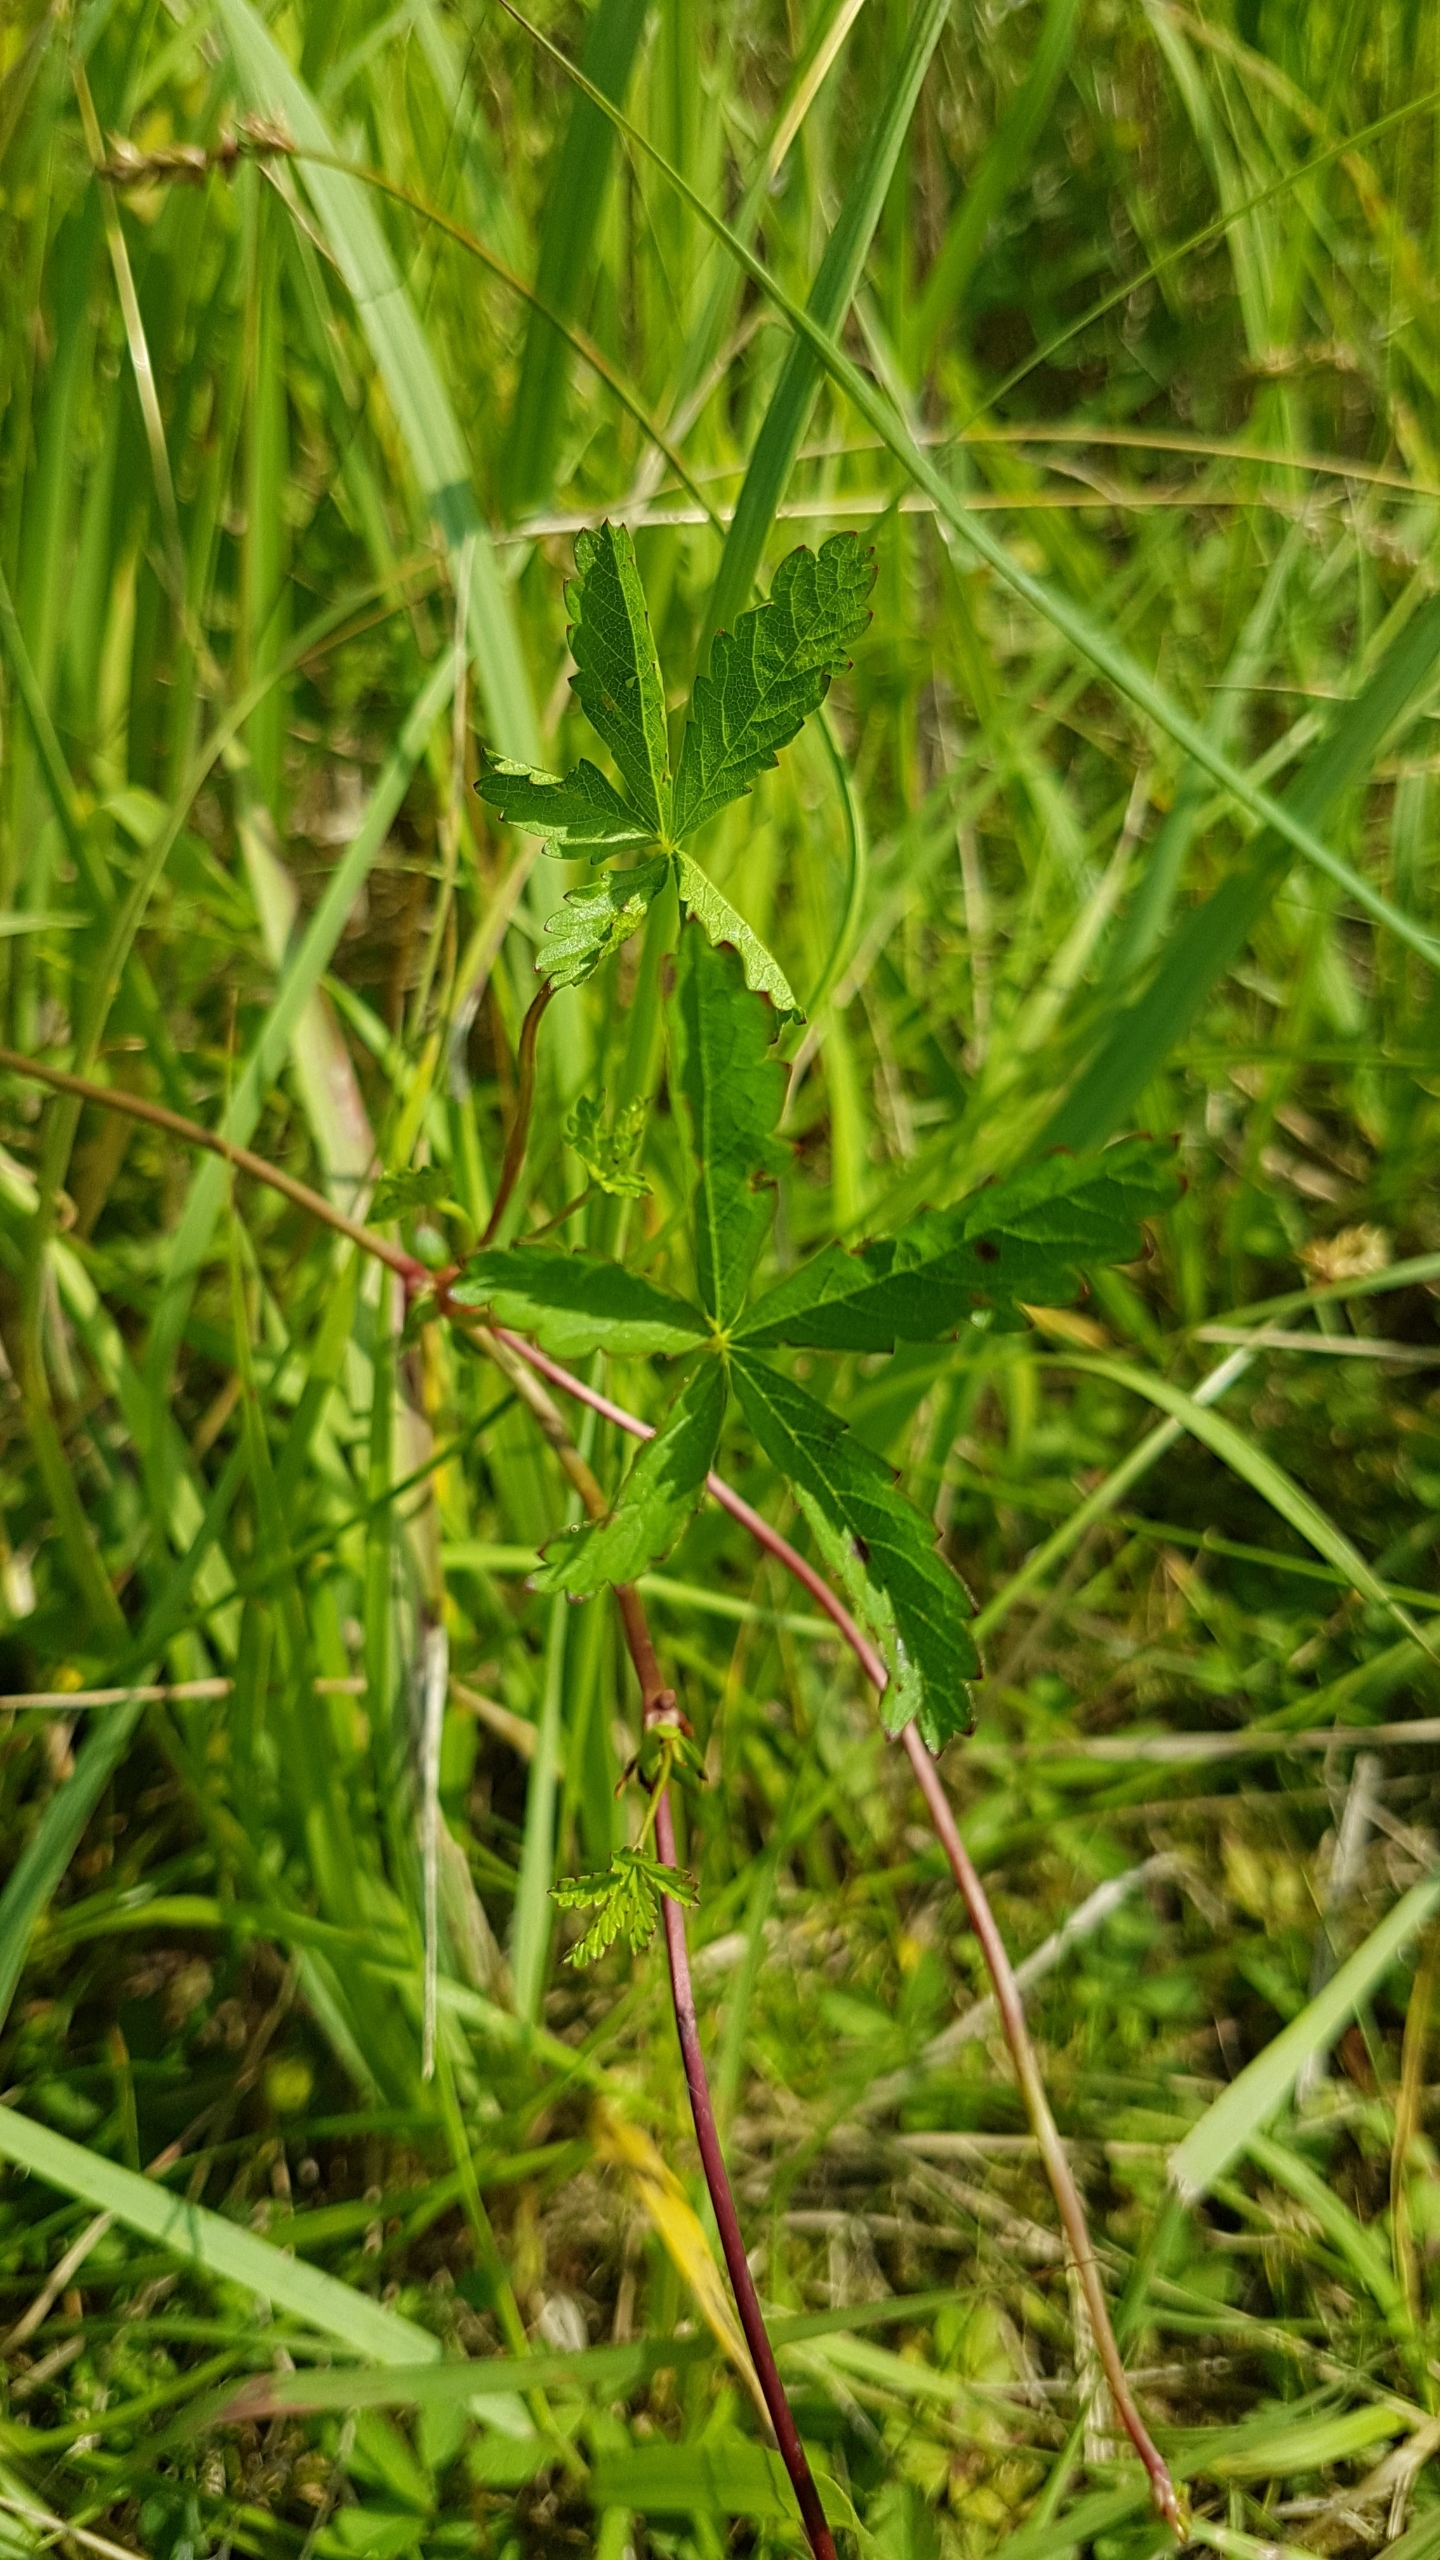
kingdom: Plantae
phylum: Tracheophyta
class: Magnoliopsida
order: Rosales
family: Rosaceae
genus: Potentilla
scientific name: Potentilla reptans
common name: Krybende potentil
